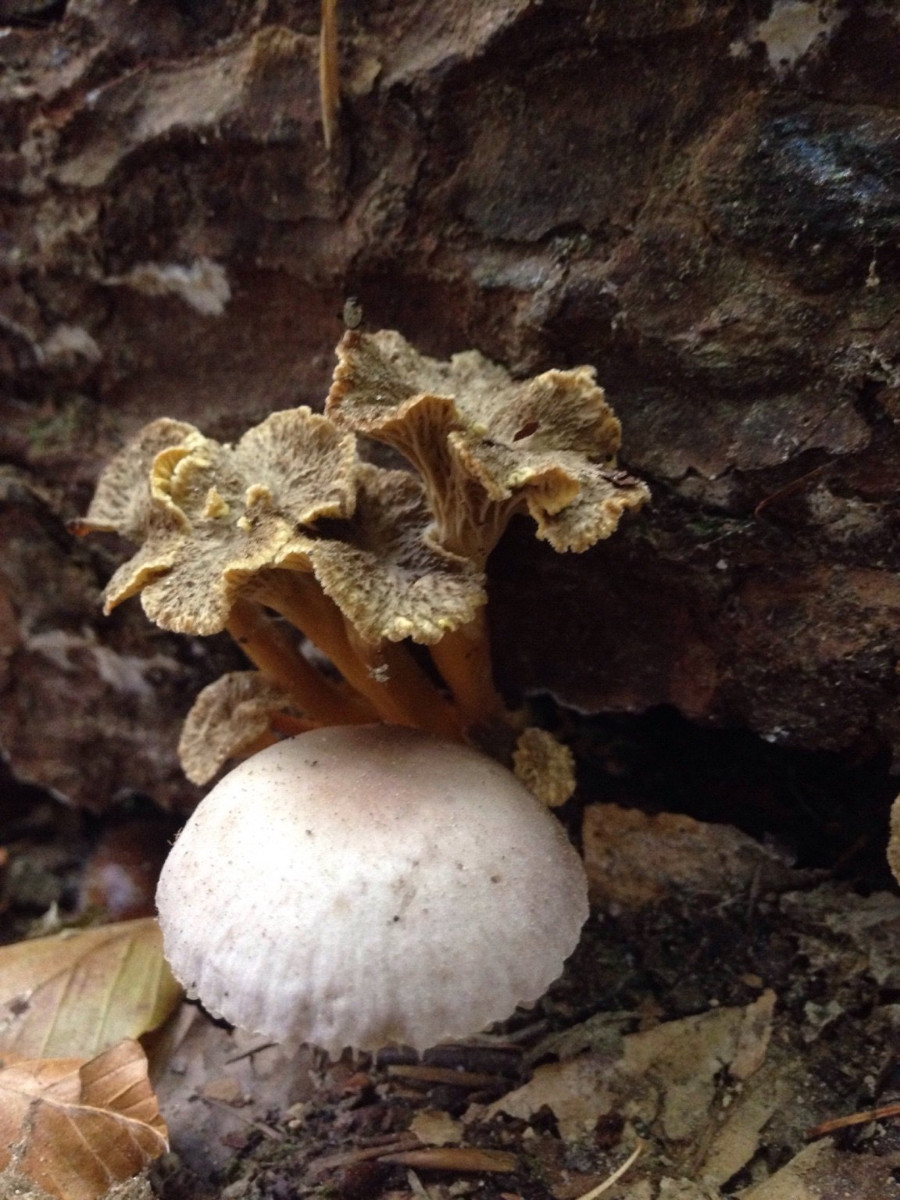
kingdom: Fungi
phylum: Basidiomycota
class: Agaricomycetes
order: Cantharellales
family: Hydnaceae
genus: Craterellus
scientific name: Craterellus tubaeformis
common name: tragt-kantarel
